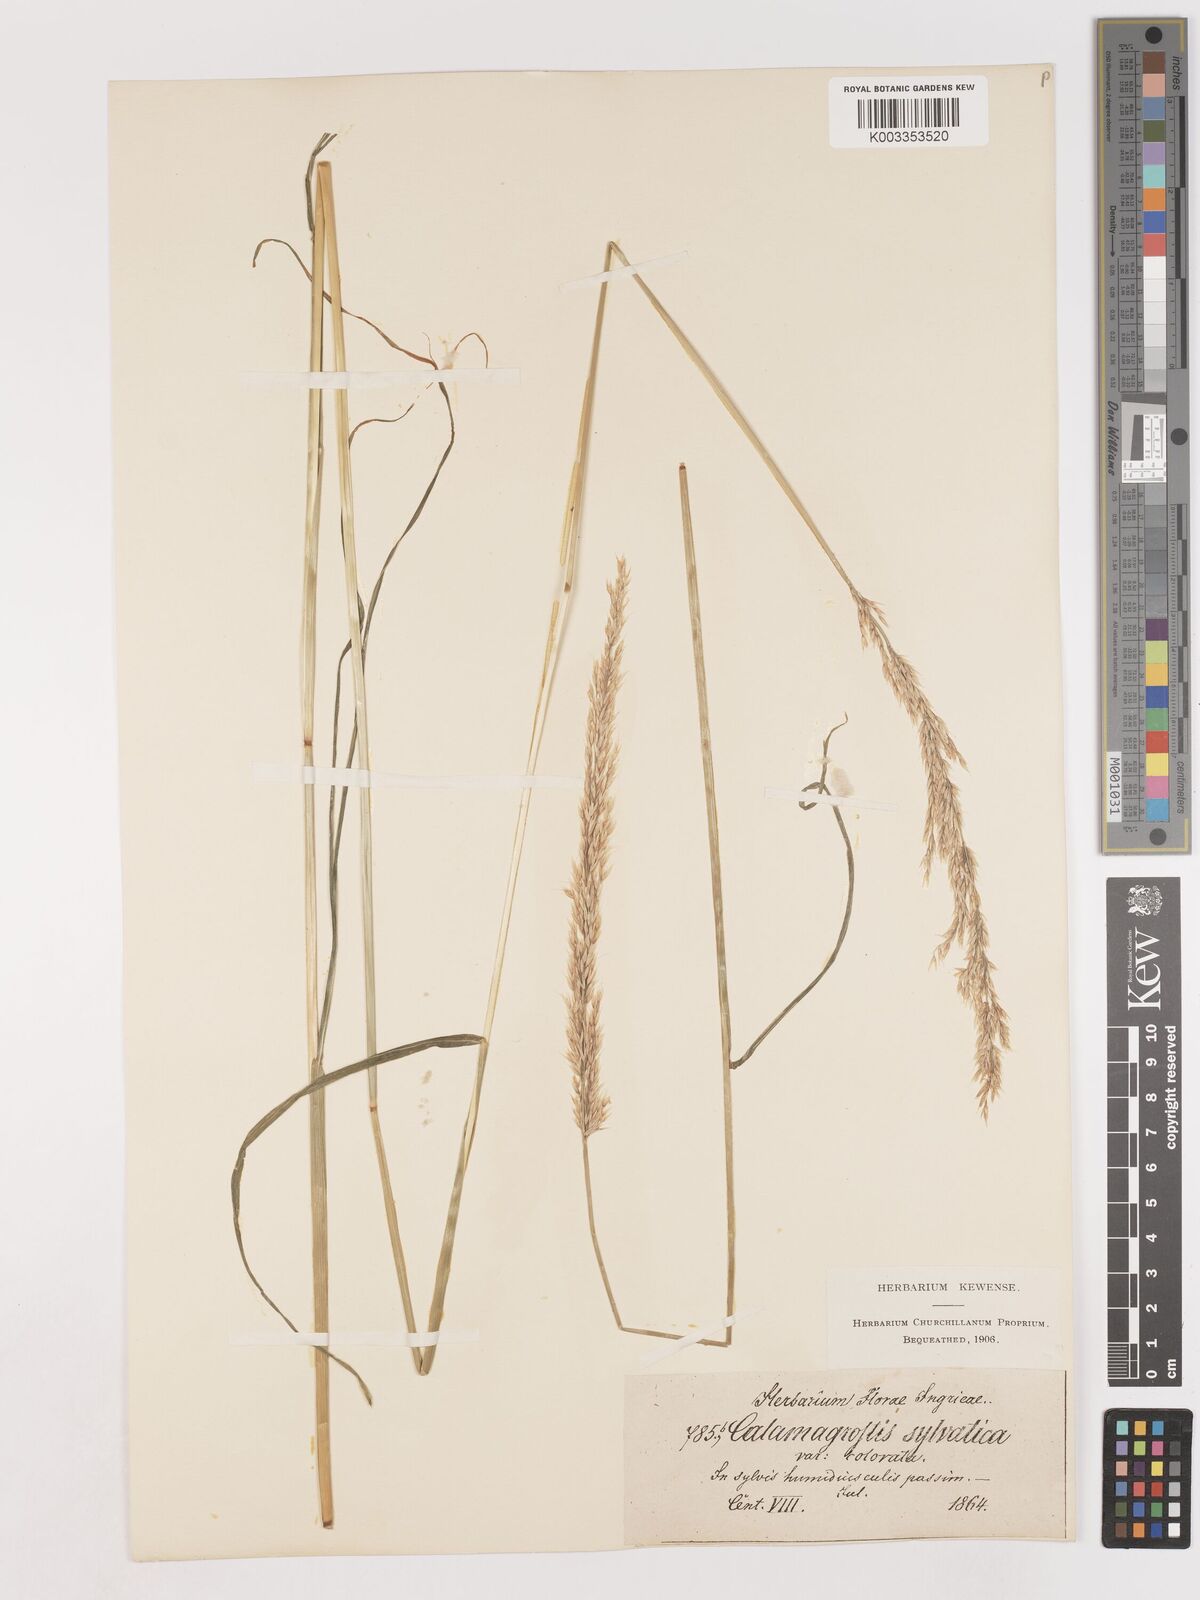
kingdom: Plantae
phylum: Tracheophyta
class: Liliopsida
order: Poales
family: Poaceae
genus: Calamagrostis
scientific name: Calamagrostis
